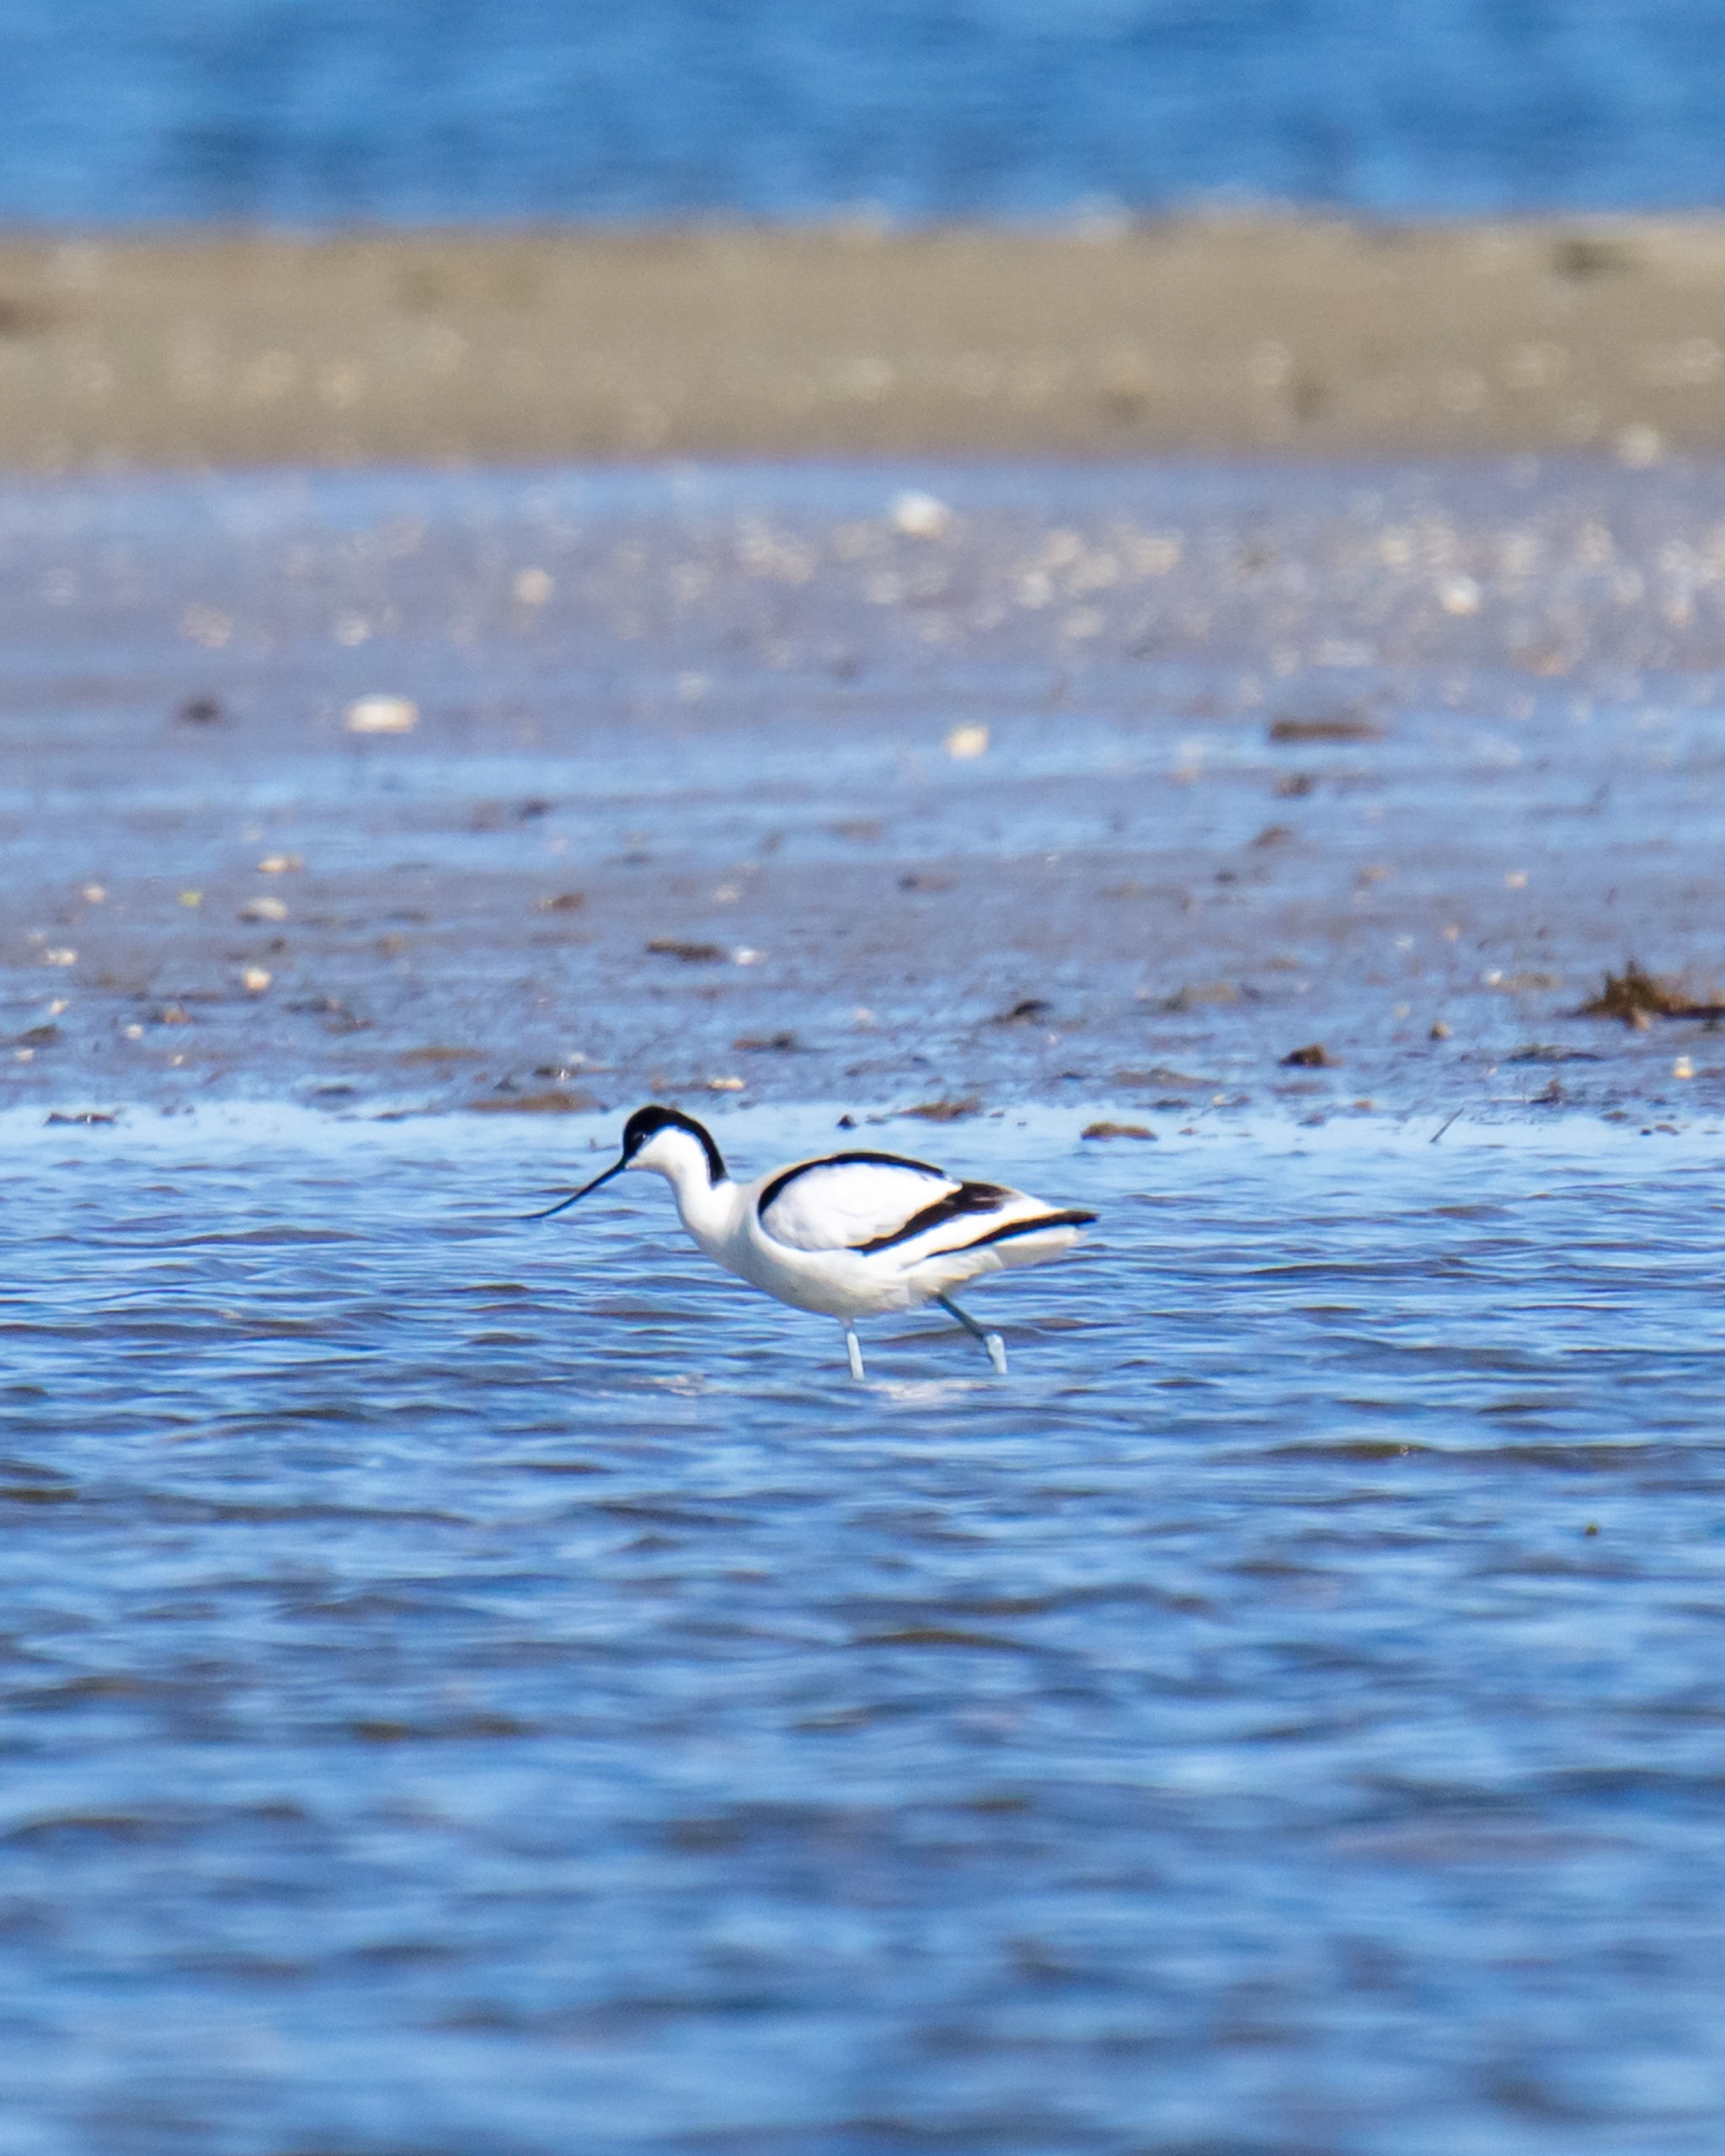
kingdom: Animalia
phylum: Chordata
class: Aves
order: Charadriiformes
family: Recurvirostridae
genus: Recurvirostra
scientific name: Recurvirostra avosetta
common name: Klyde
